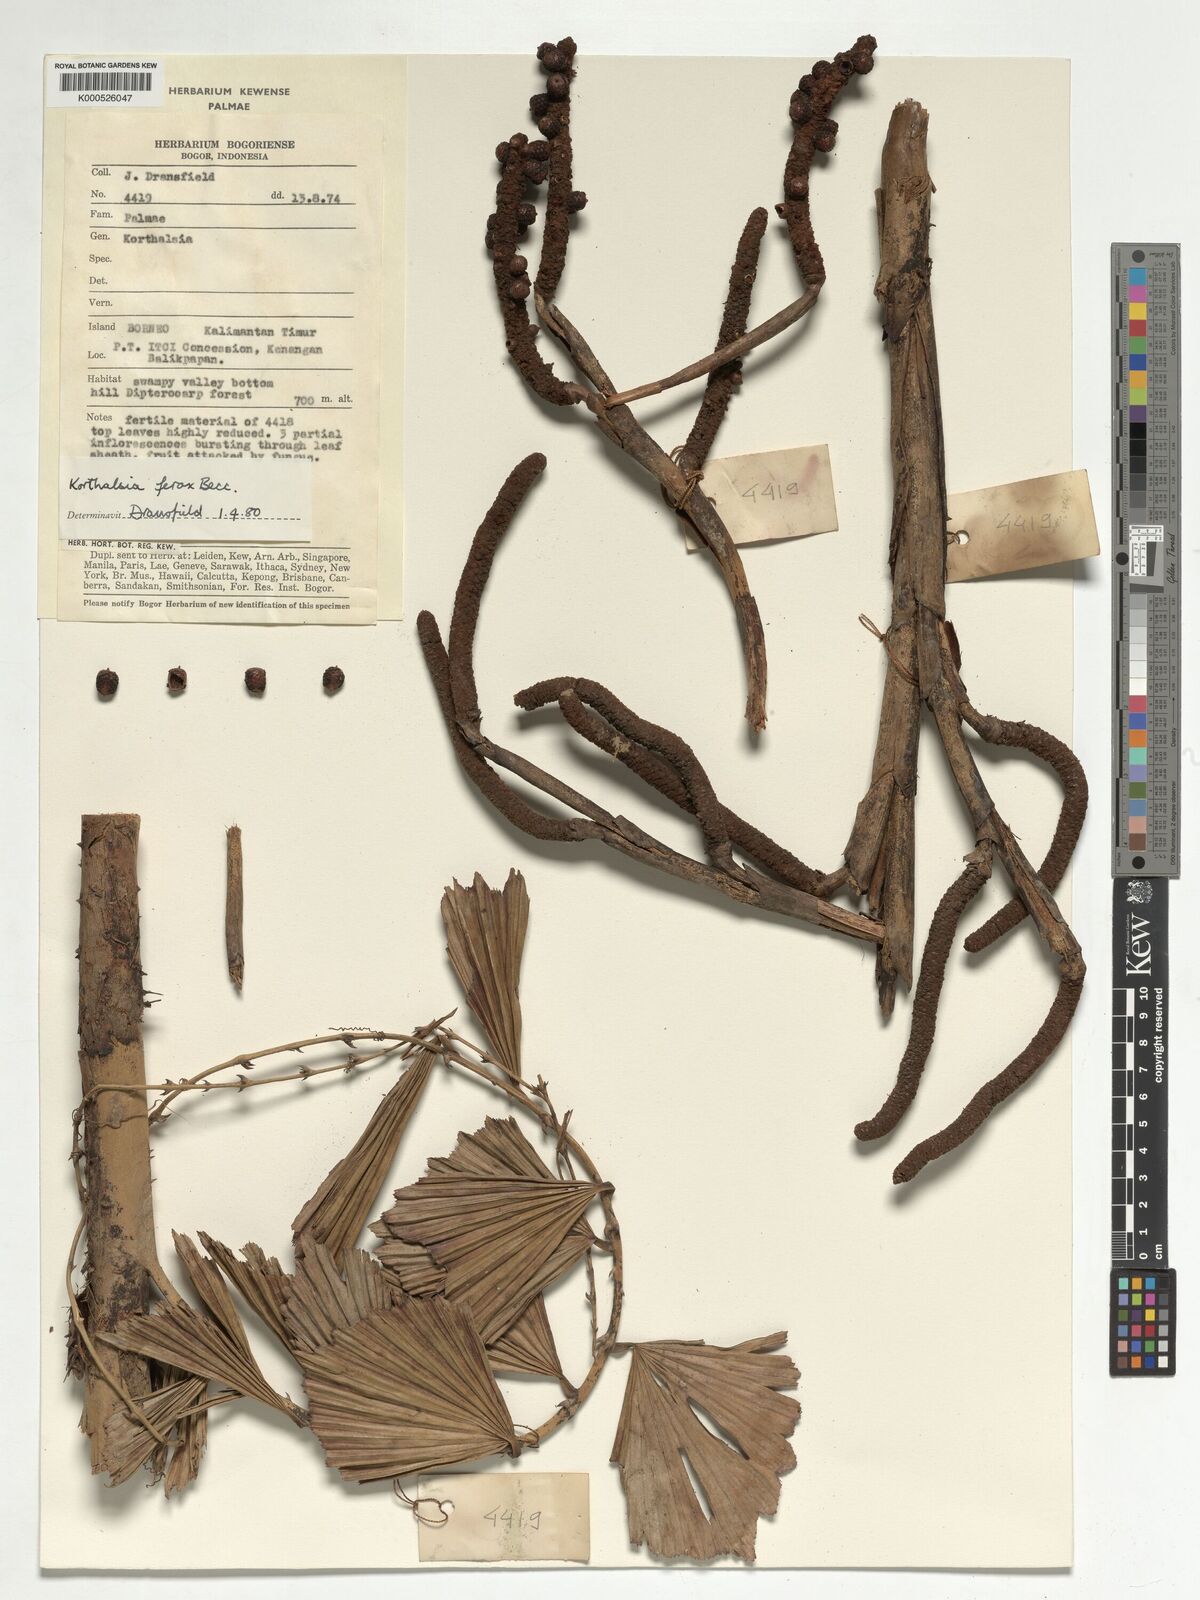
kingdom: Plantae
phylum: Tracheophyta
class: Liliopsida
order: Arecales
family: Arecaceae
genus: Korthalsia
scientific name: Korthalsia ferox
